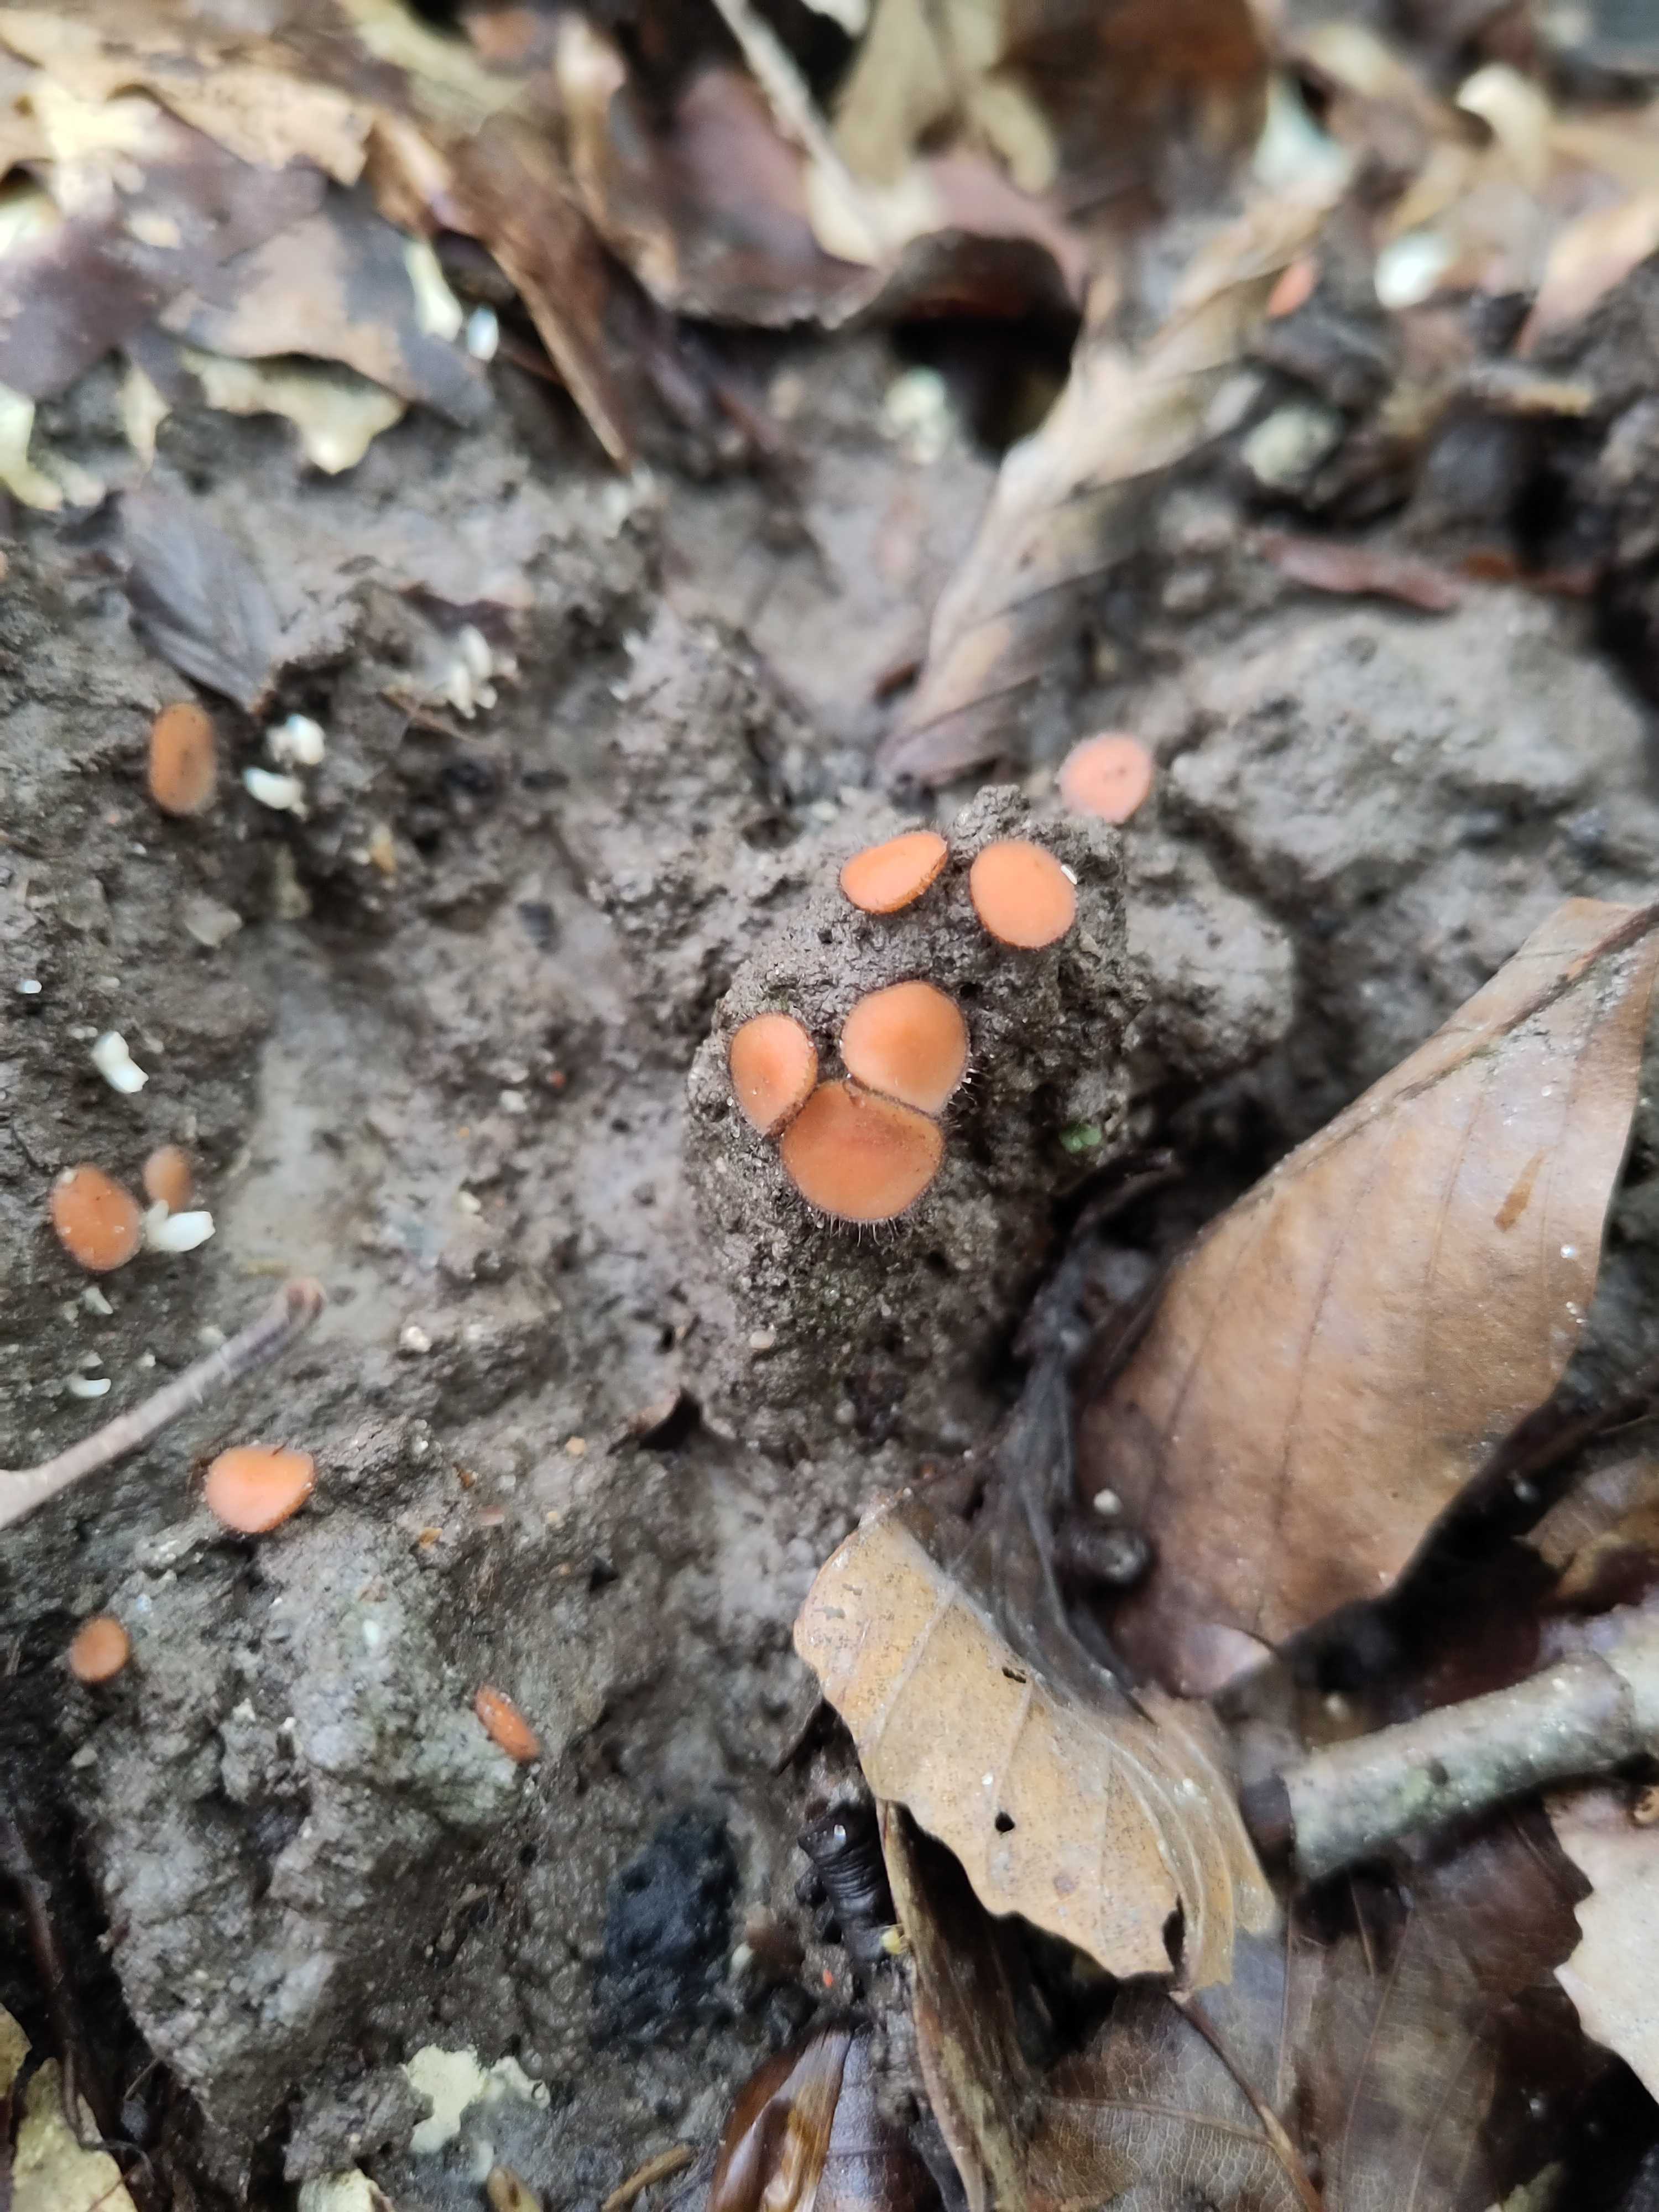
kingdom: Fungi
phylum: Ascomycota
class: Pezizomycetes
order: Pezizales
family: Pyronemataceae
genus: Scutellinia
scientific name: Scutellinia
